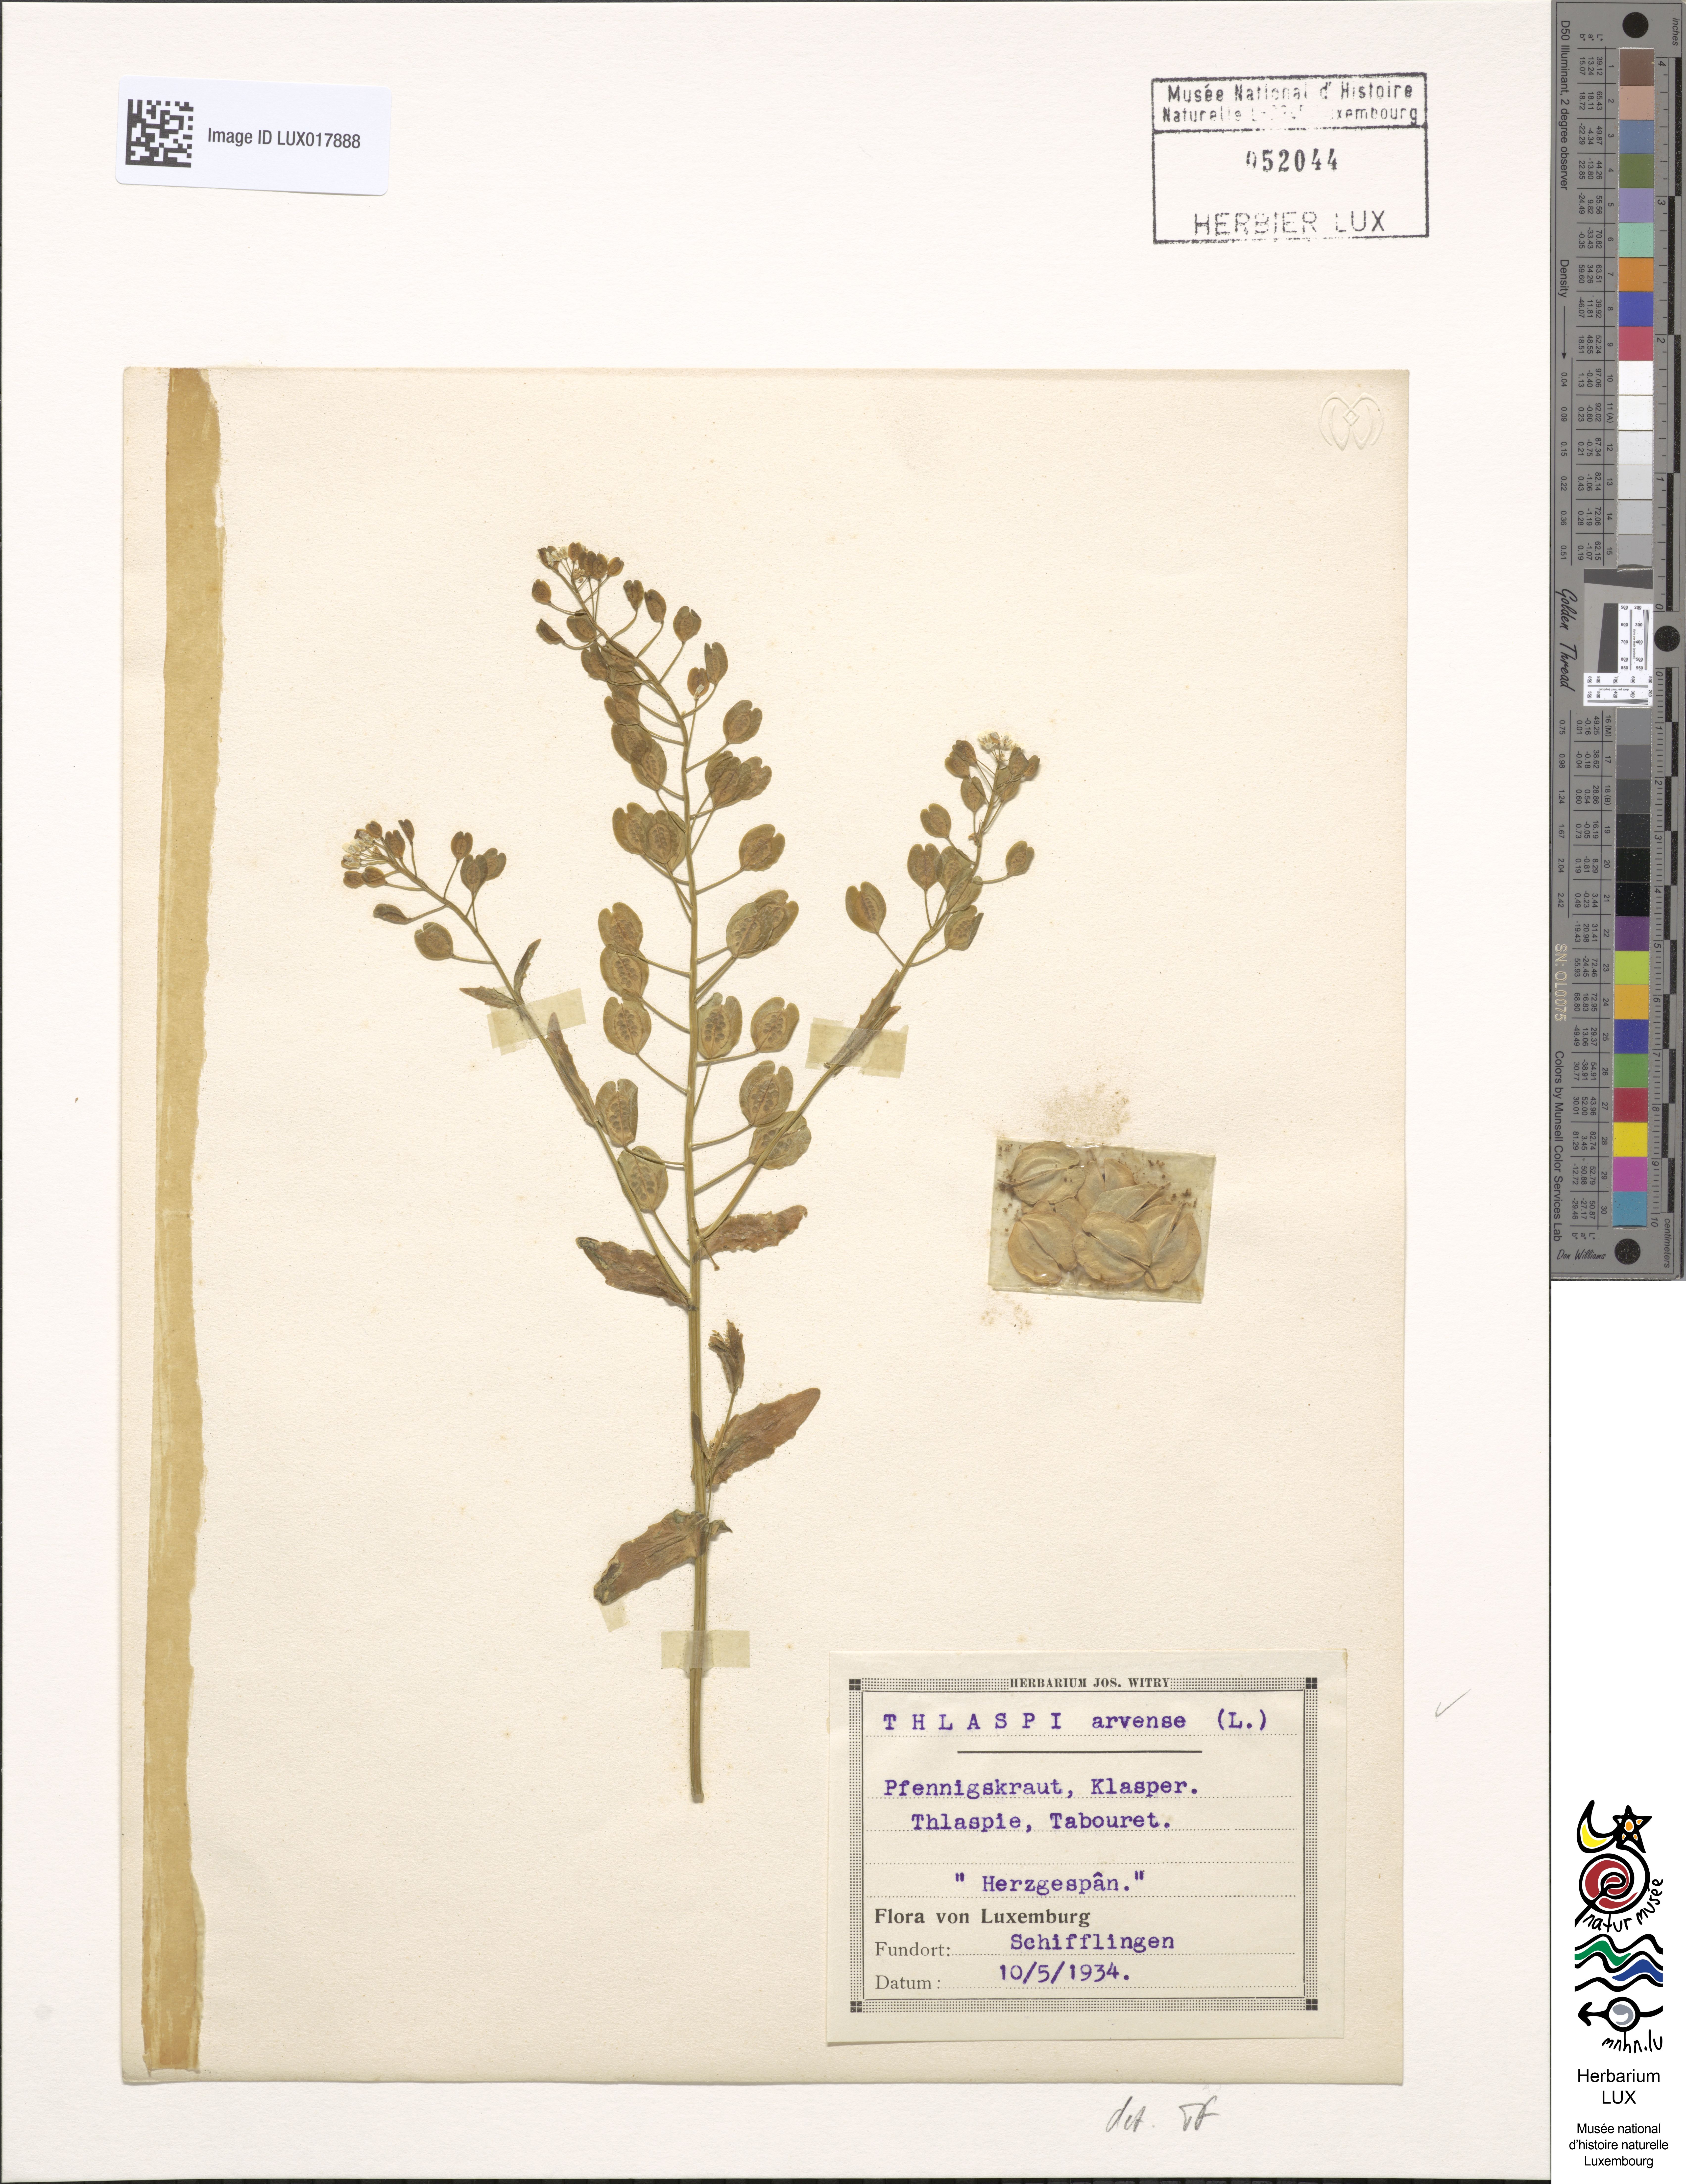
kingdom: Plantae
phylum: Tracheophyta
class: Magnoliopsida
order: Brassicales
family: Brassicaceae
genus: Thlaspi
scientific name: Thlaspi arvense
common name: Field pennycress
